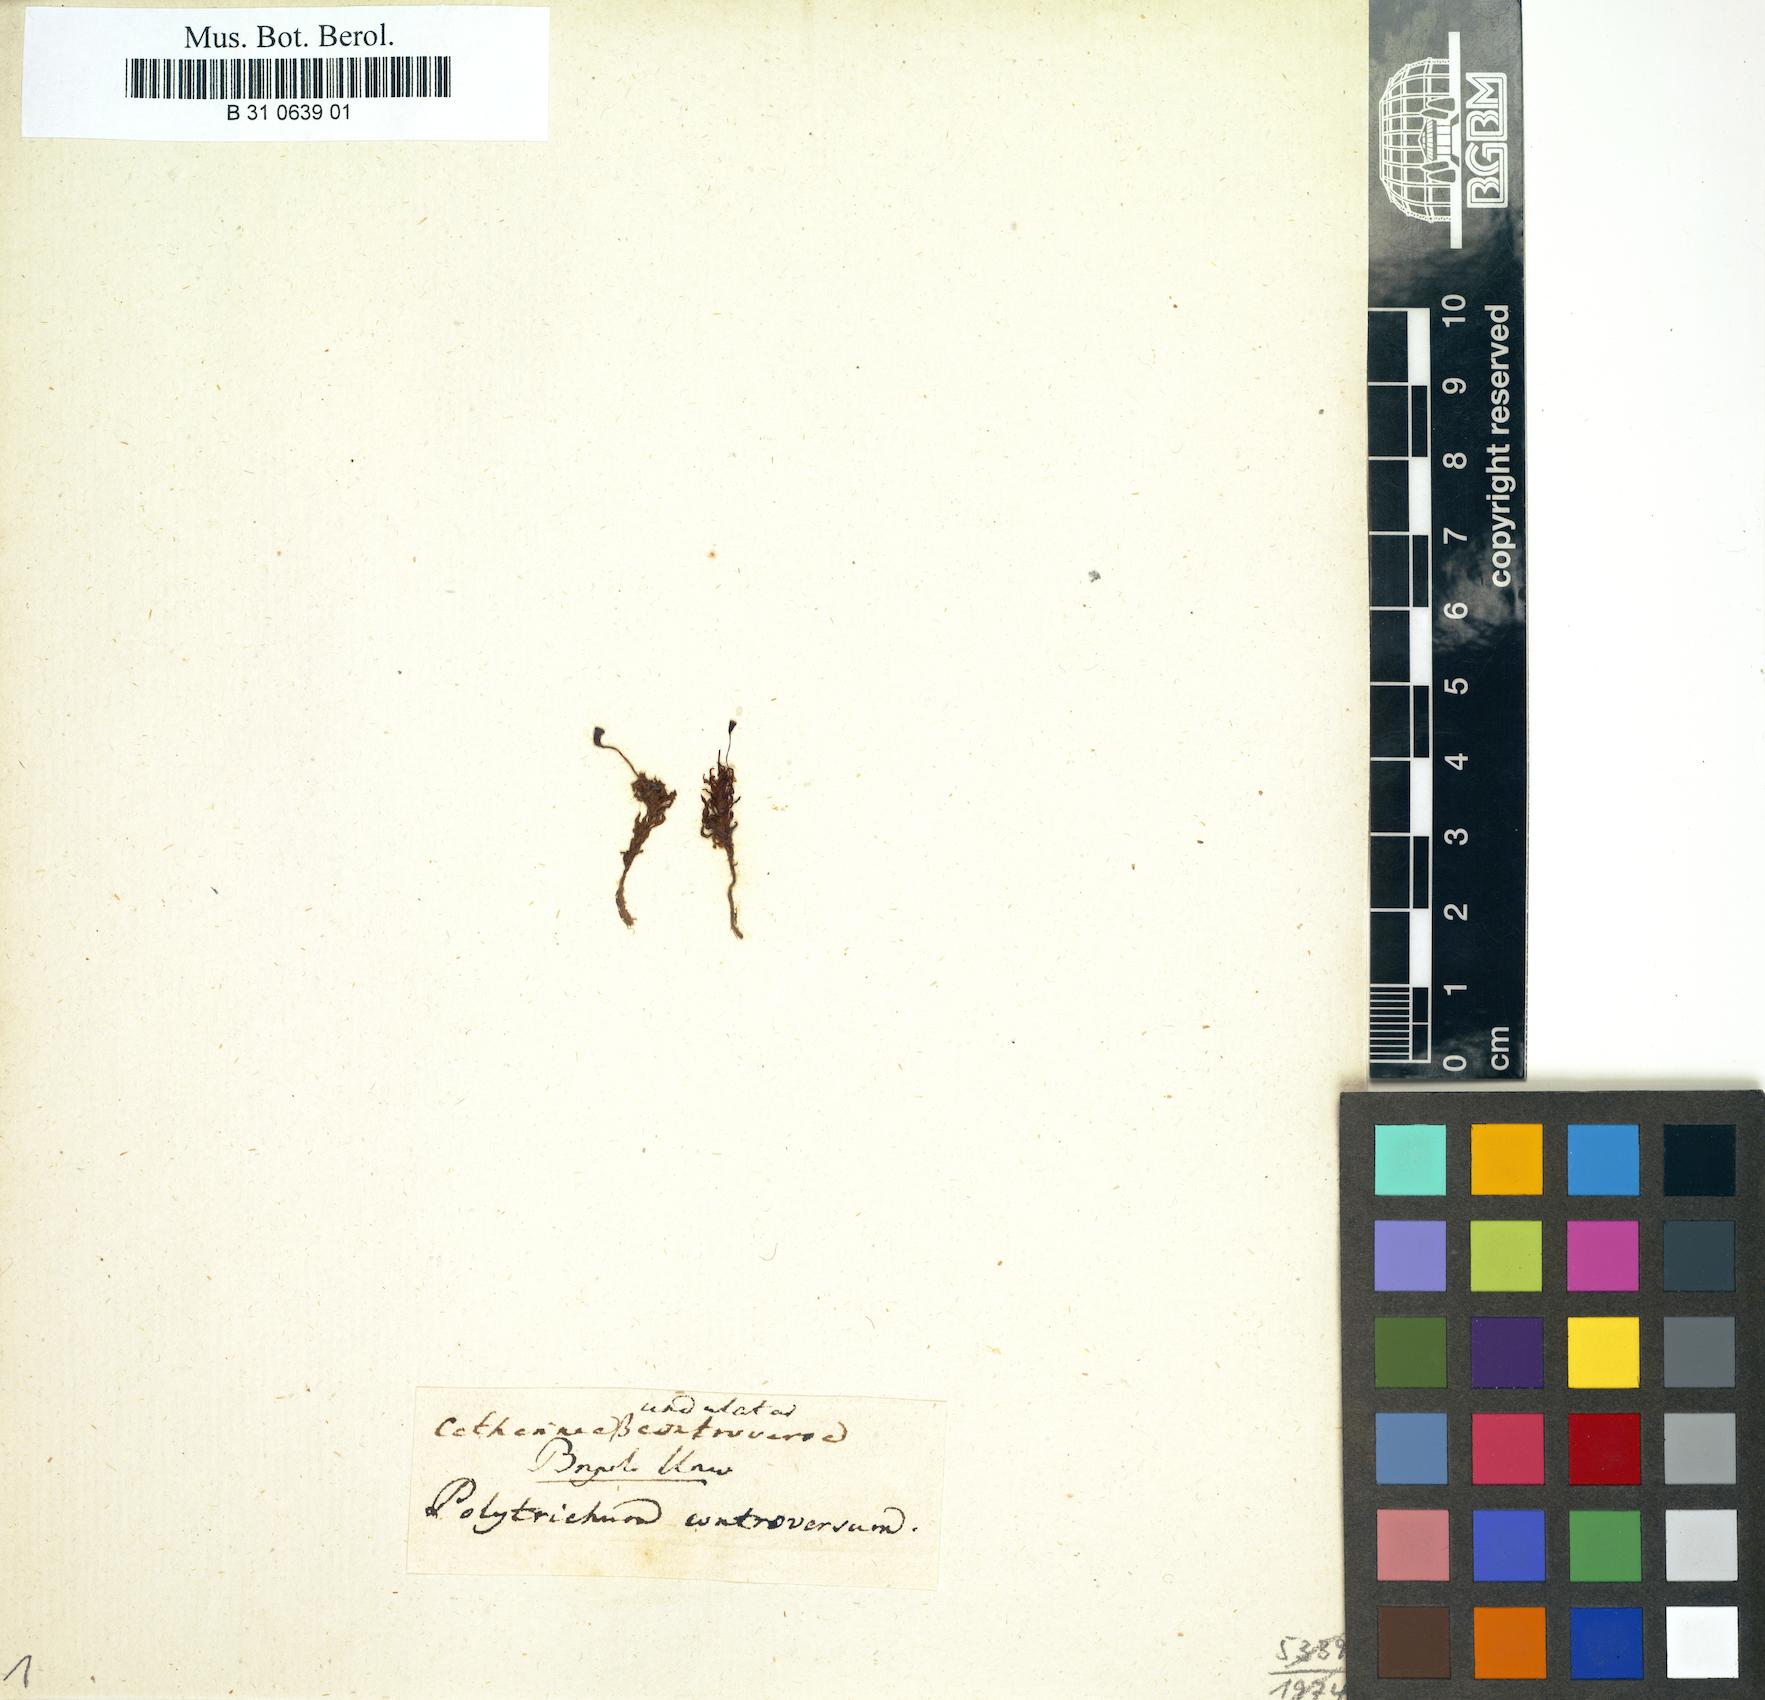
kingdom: Plantae
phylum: Bryophyta
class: Polytrichopsida
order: Polytrichales
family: Polytrichaceae
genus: Atrichum
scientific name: Atrichum tenellum
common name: Slender smoothcap moss
